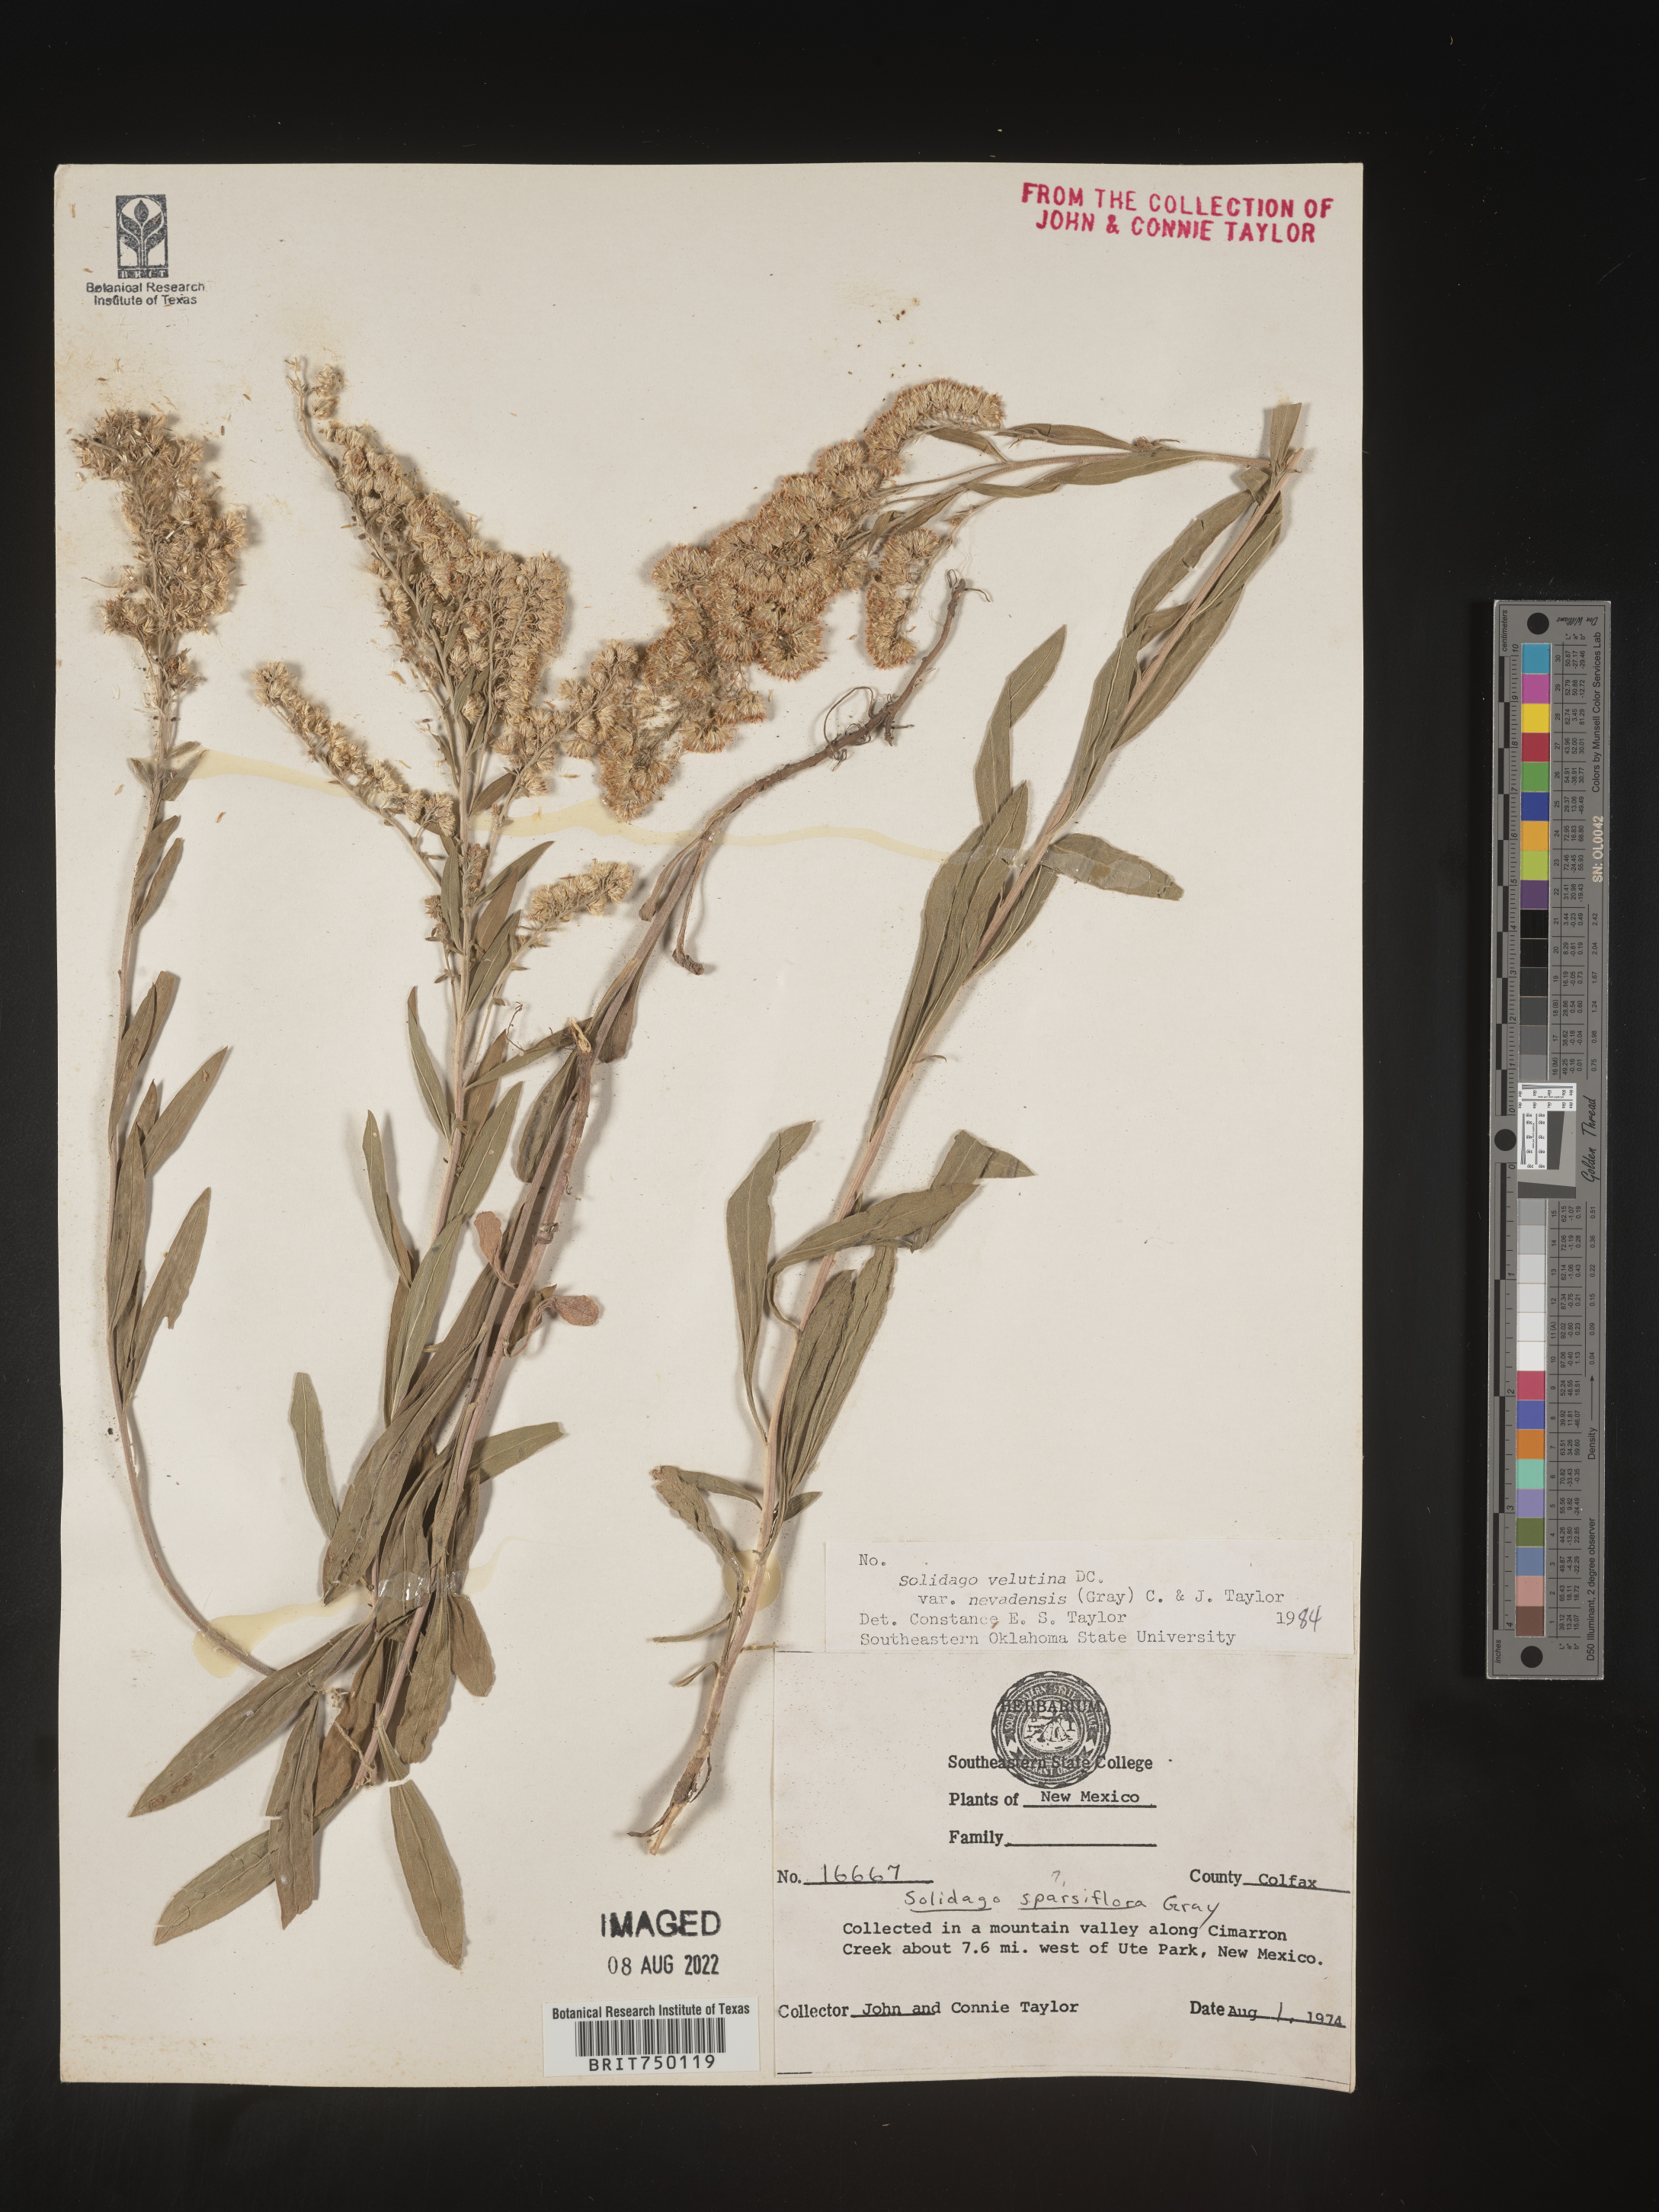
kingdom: Plantae
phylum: Tracheophyta
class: Magnoliopsida
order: Asterales
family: Asteraceae
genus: Solidago
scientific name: Solidago velutina
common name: Three-nerve goldenrod
